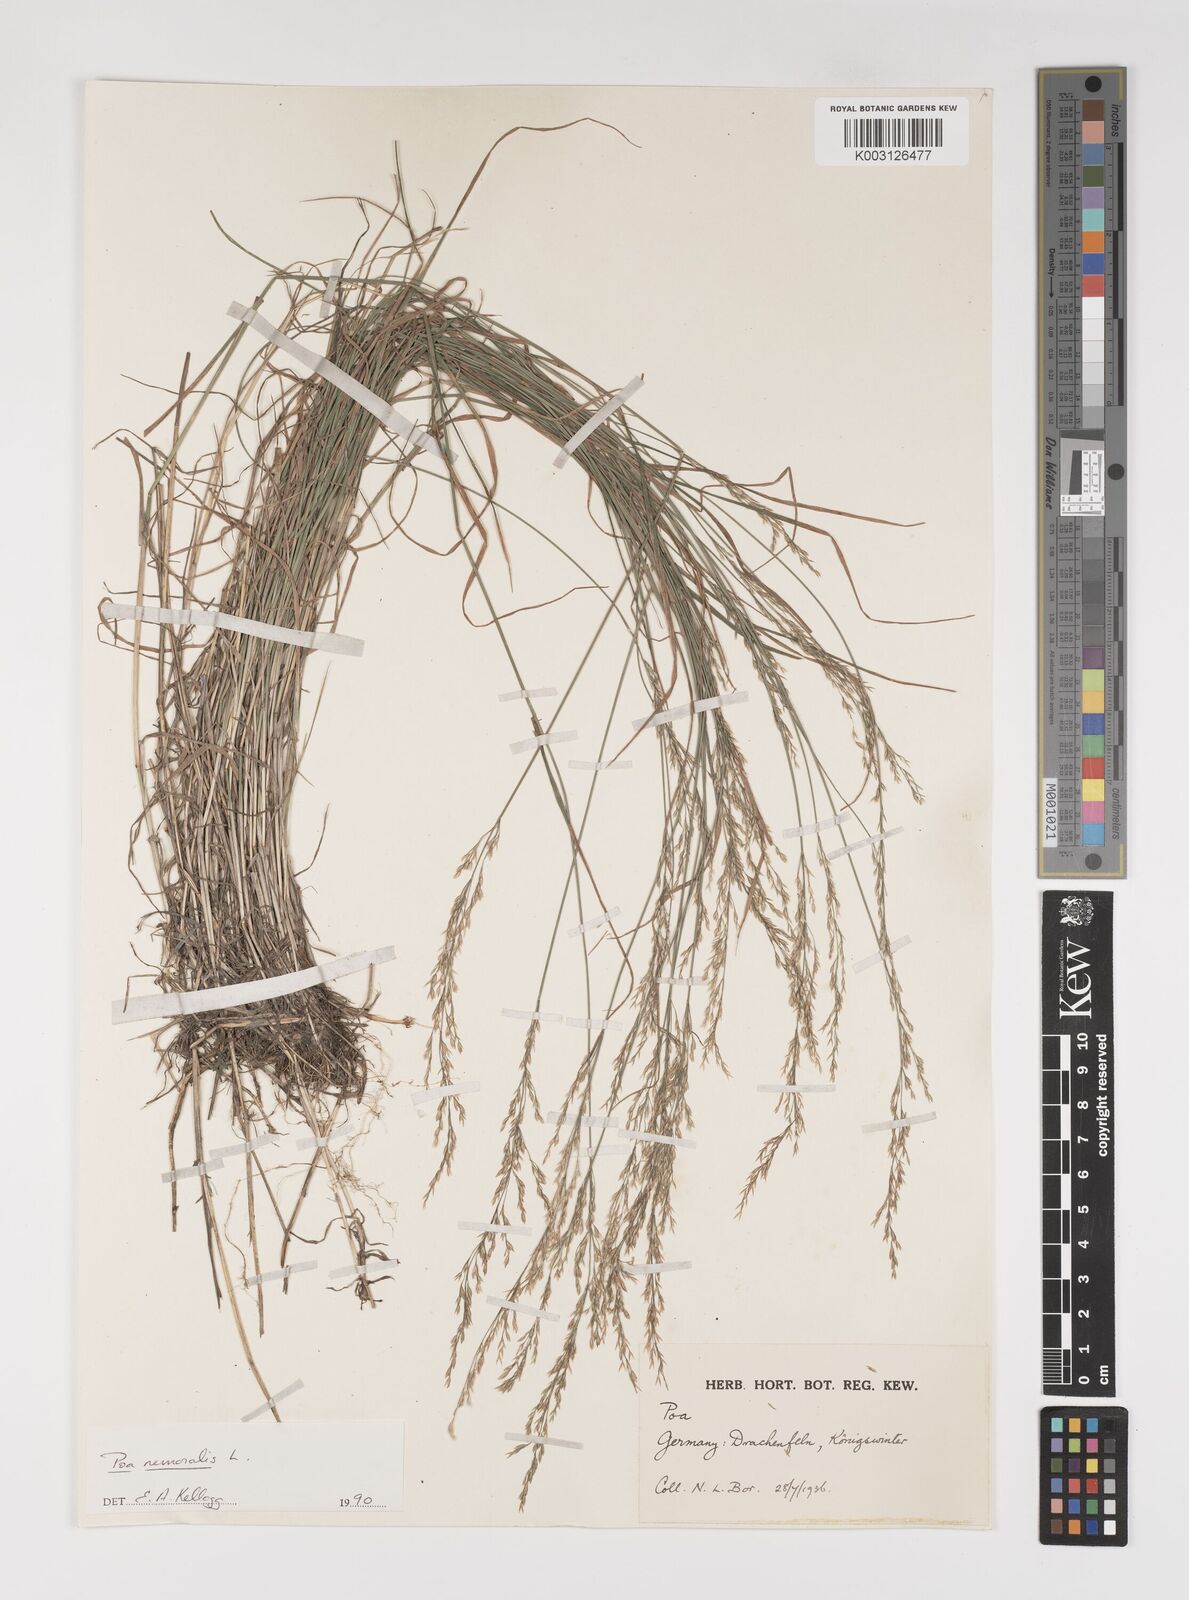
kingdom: Plantae
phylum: Tracheophyta
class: Liliopsida
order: Poales
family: Poaceae
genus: Poa
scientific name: Poa nemoralis
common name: Wood bluegrass
